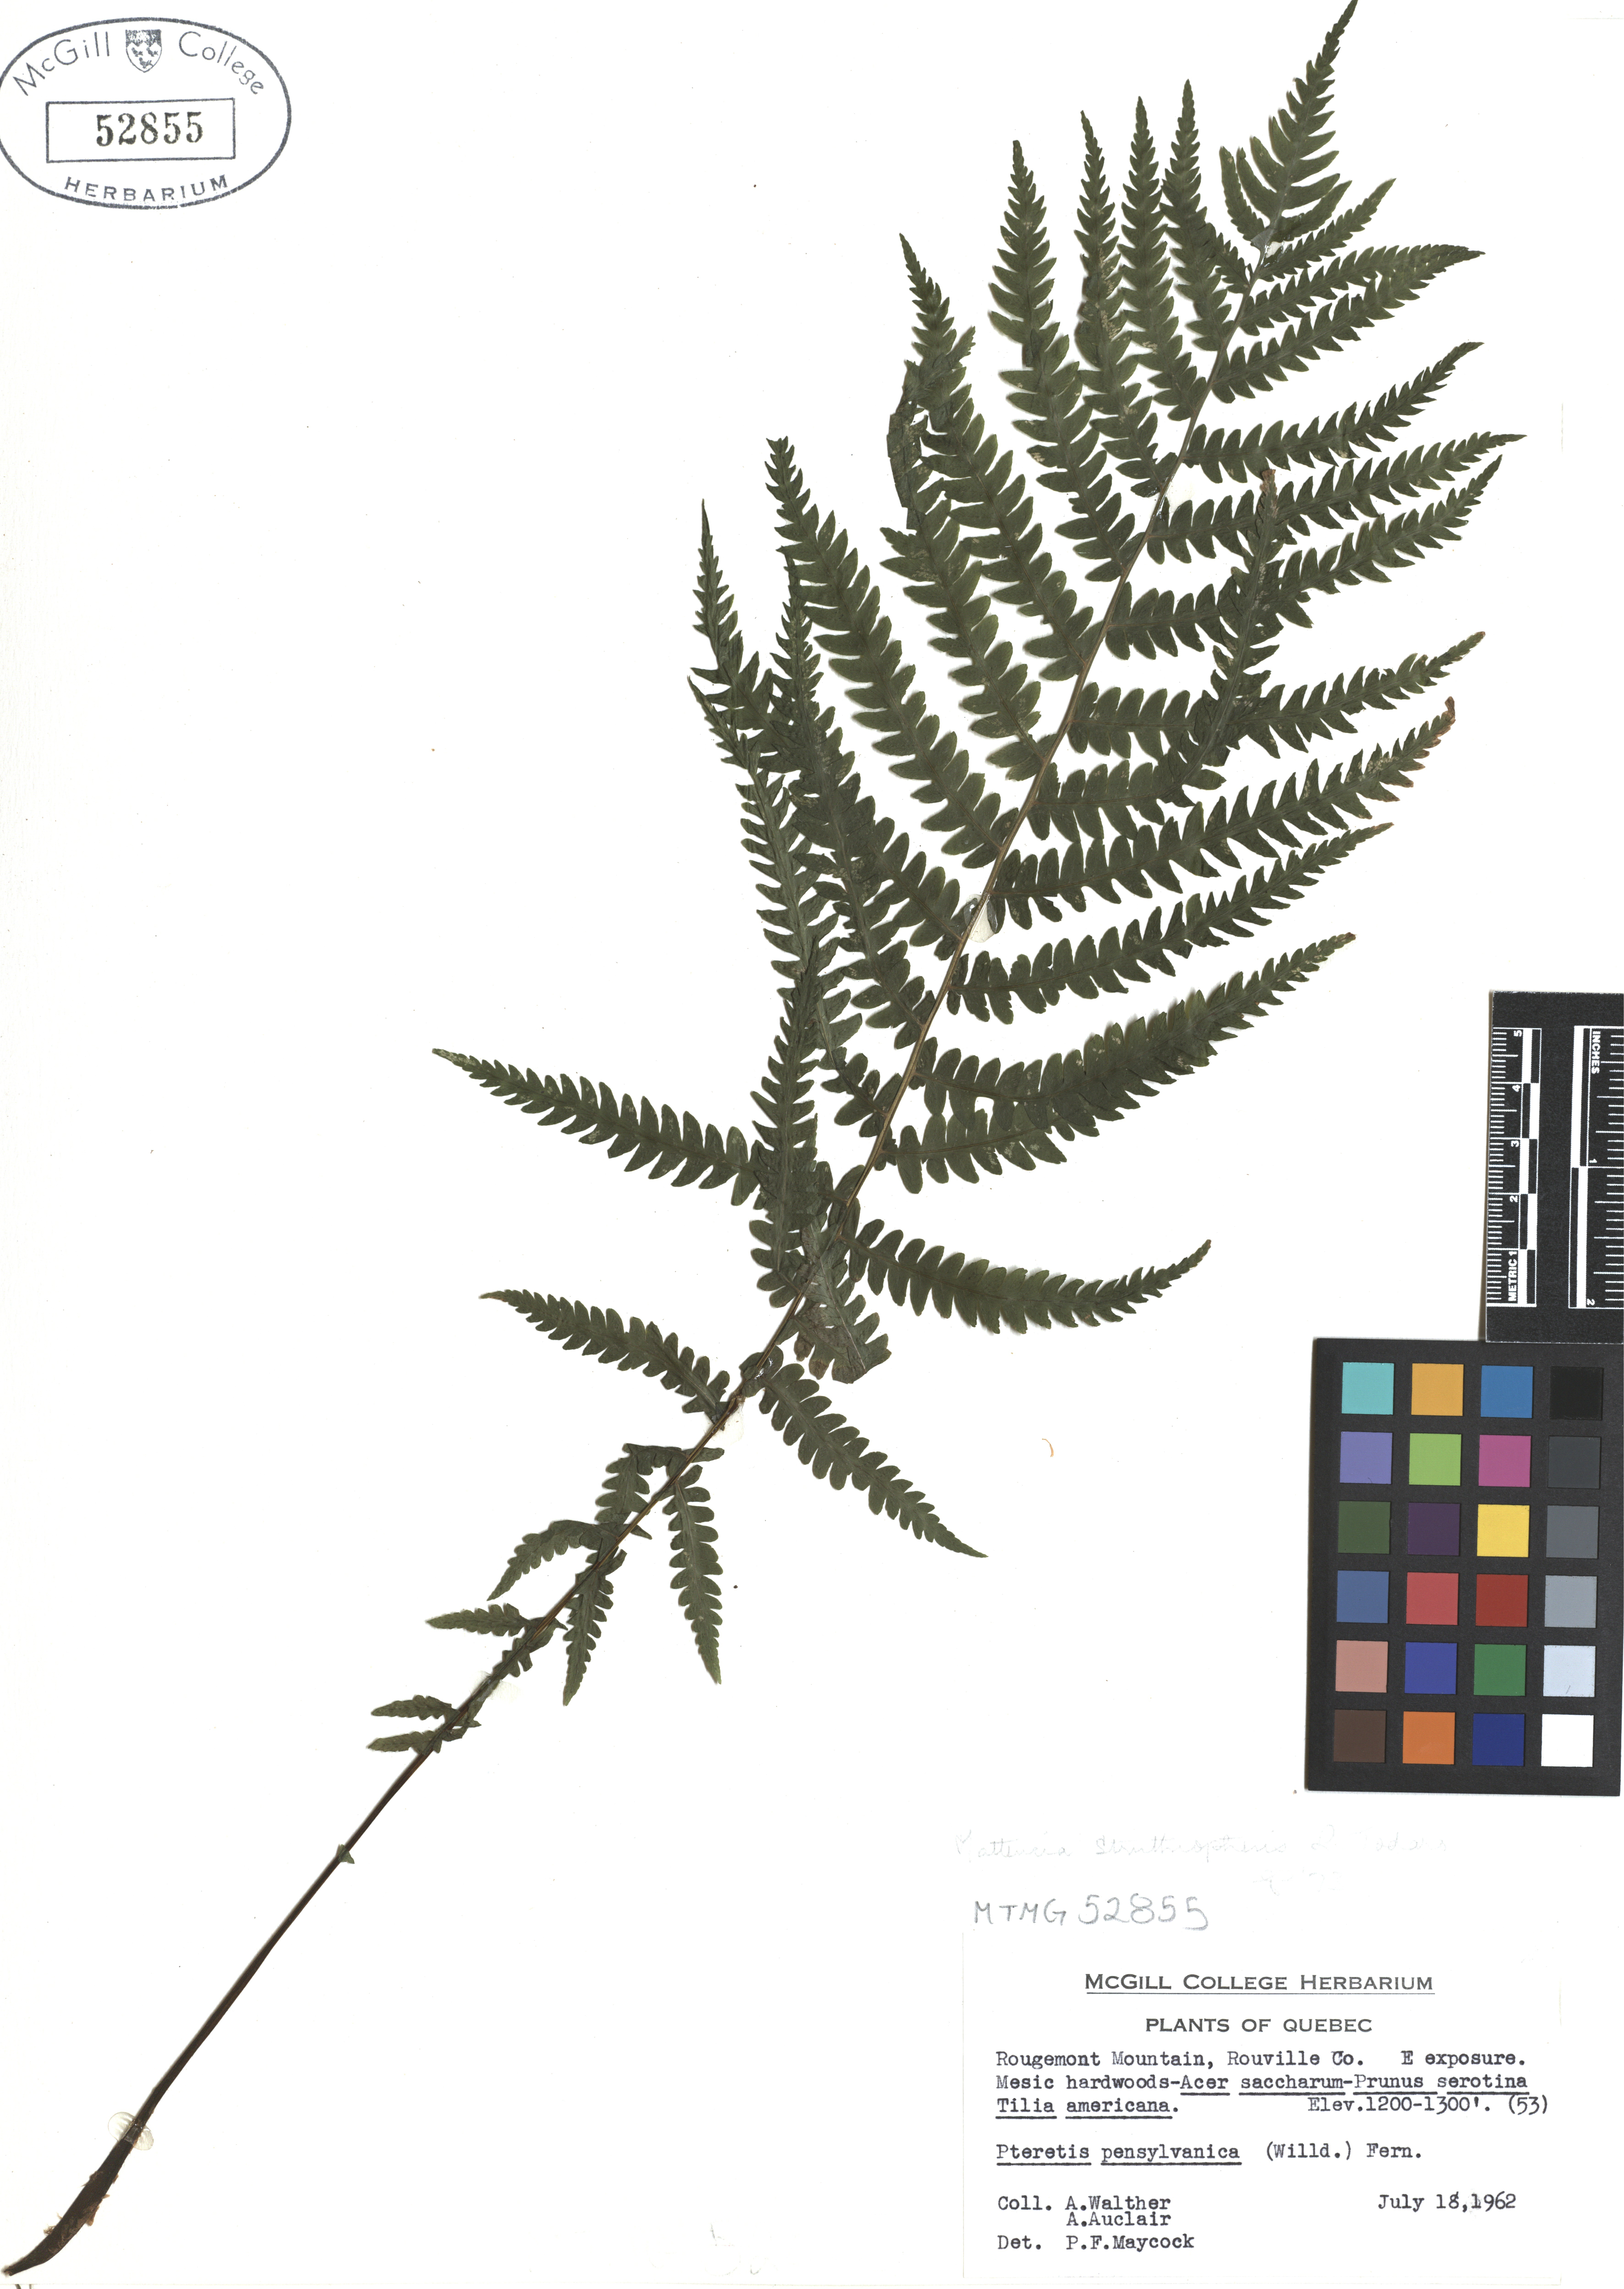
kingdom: Plantae
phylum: Tracheophyta
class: Polypodiopsida
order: Polypodiales
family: Onocleaceae
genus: Matteuccia
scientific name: Matteuccia struthiopteris
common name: Ostrich fern
